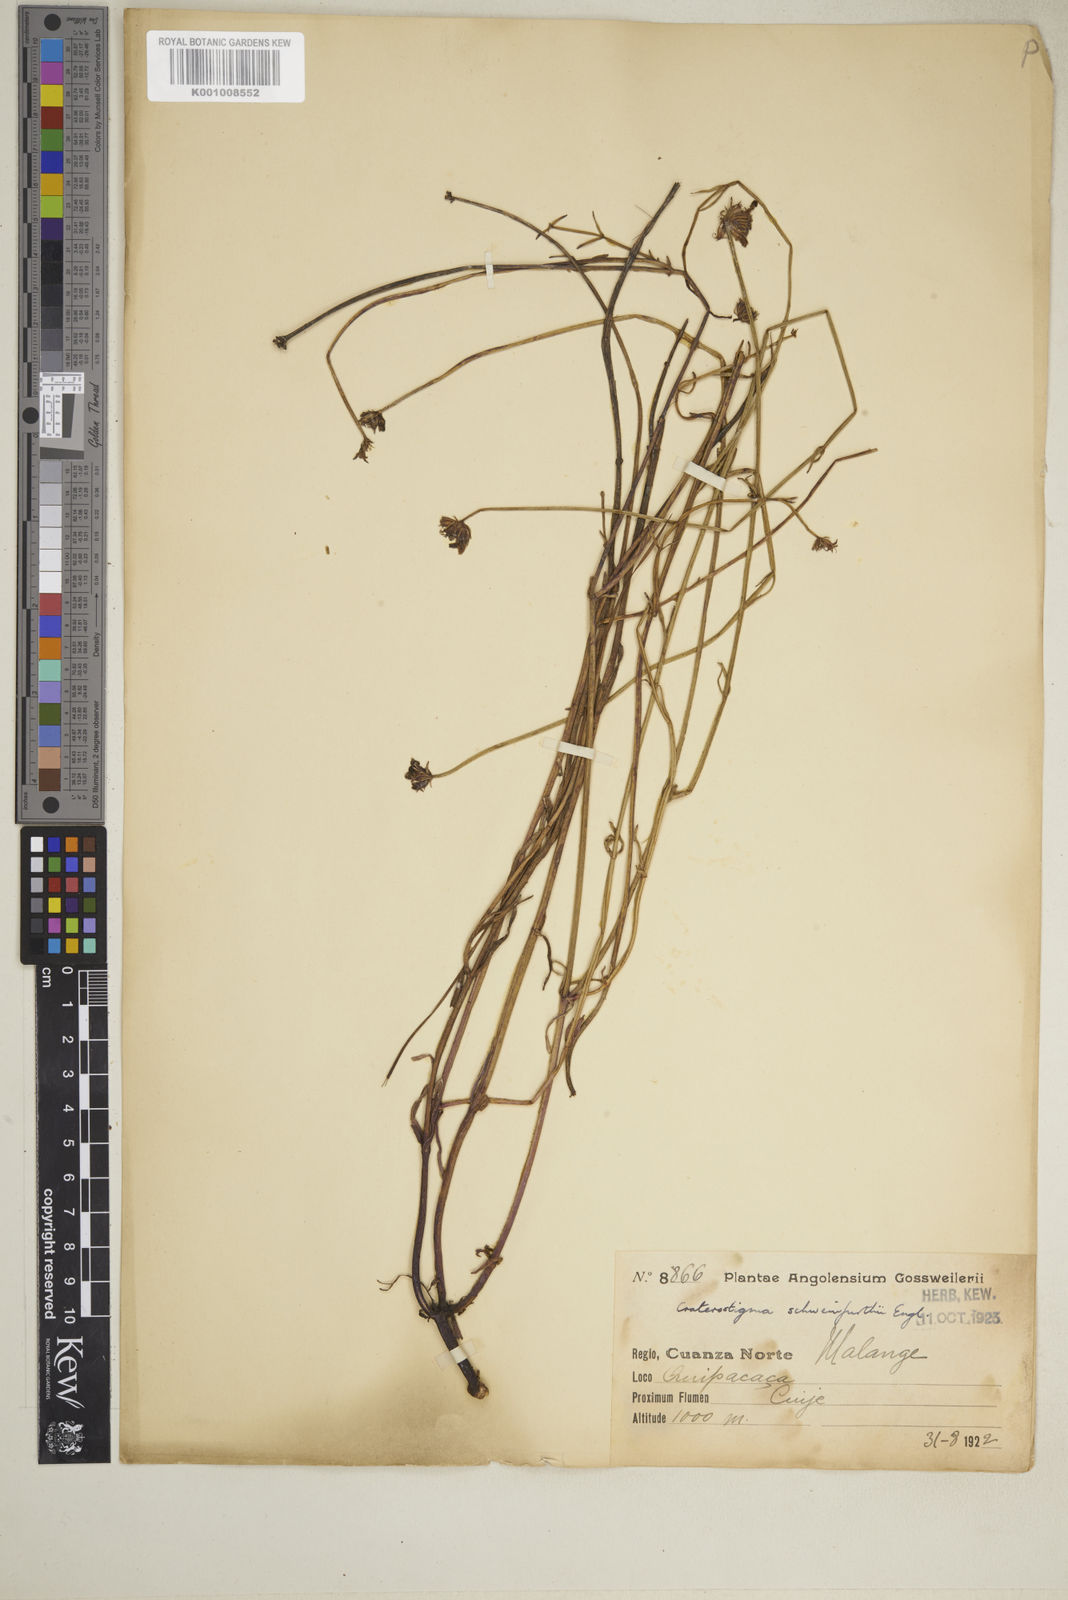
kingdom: Plantae
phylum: Tracheophyta
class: Magnoliopsida
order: Lamiales
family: Linderniaceae
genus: Crepidorhopalon
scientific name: Crepidorhopalon schweinfurthii
